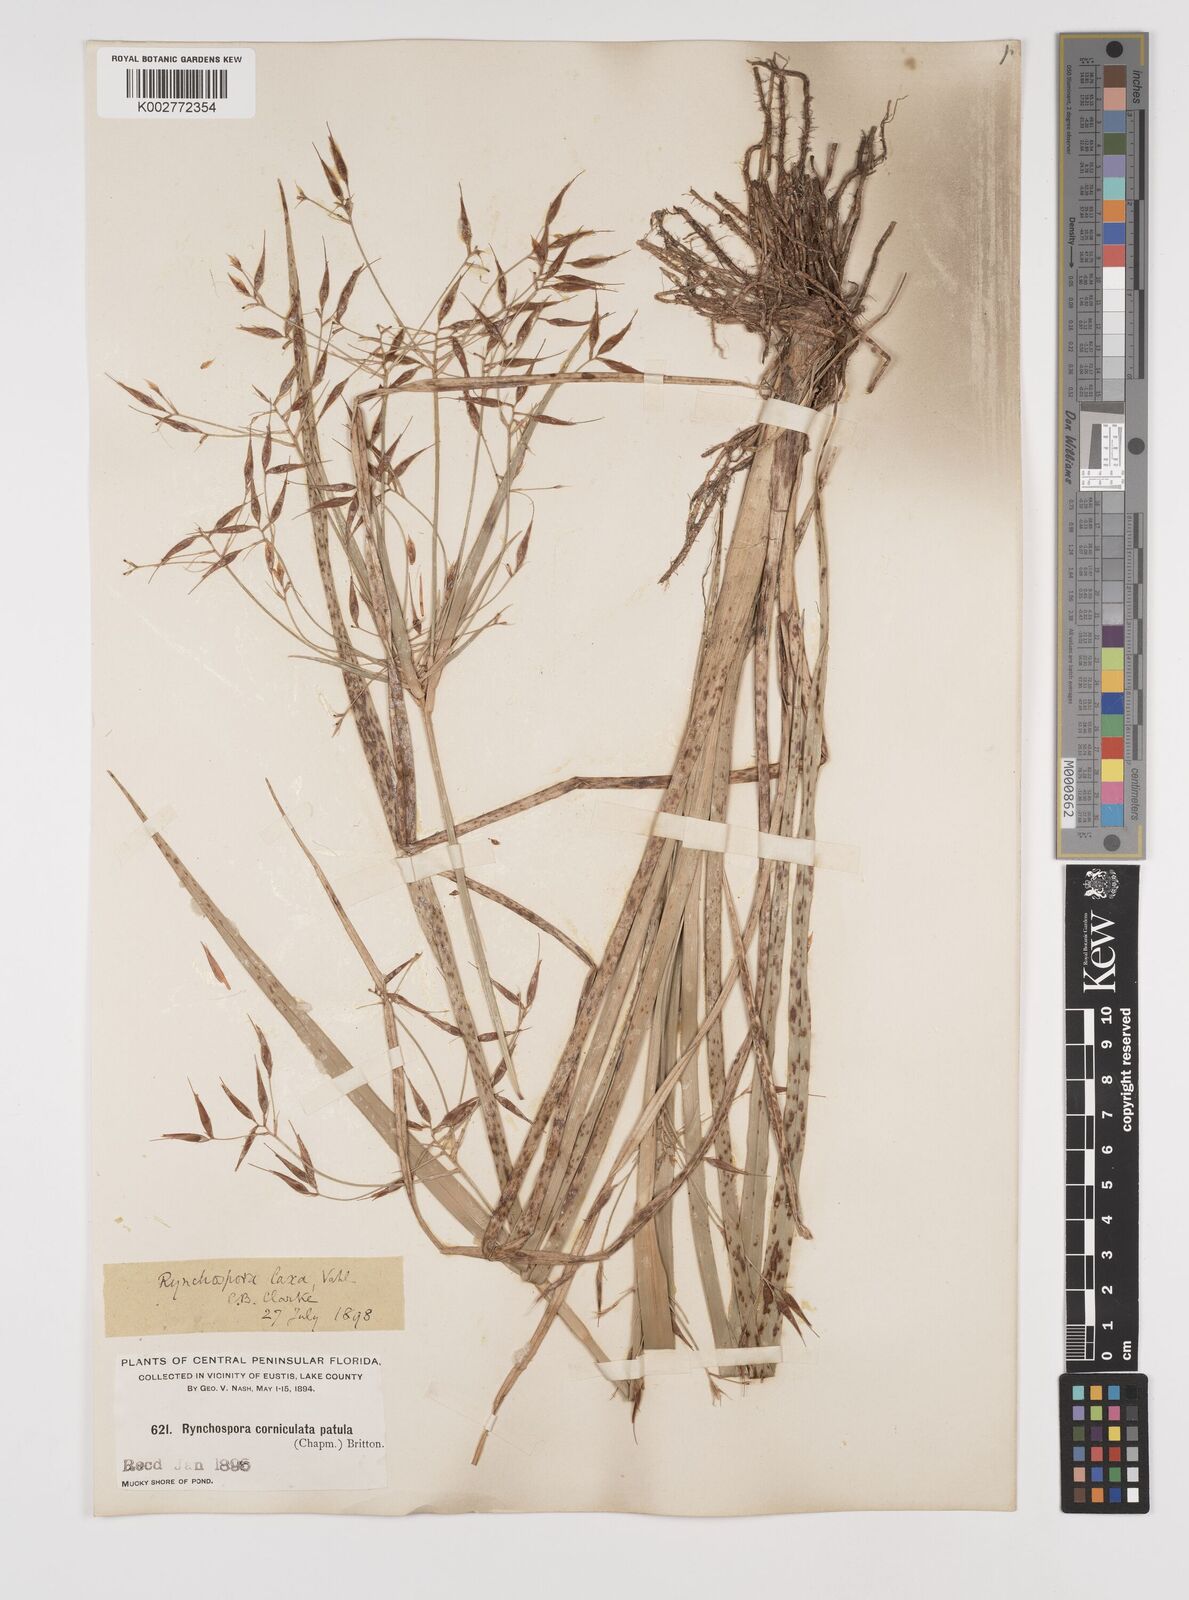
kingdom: Plantae
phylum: Tracheophyta
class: Liliopsida
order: Poales
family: Cyperaceae
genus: Rhynchospora
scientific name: Rhynchospora corniculata
